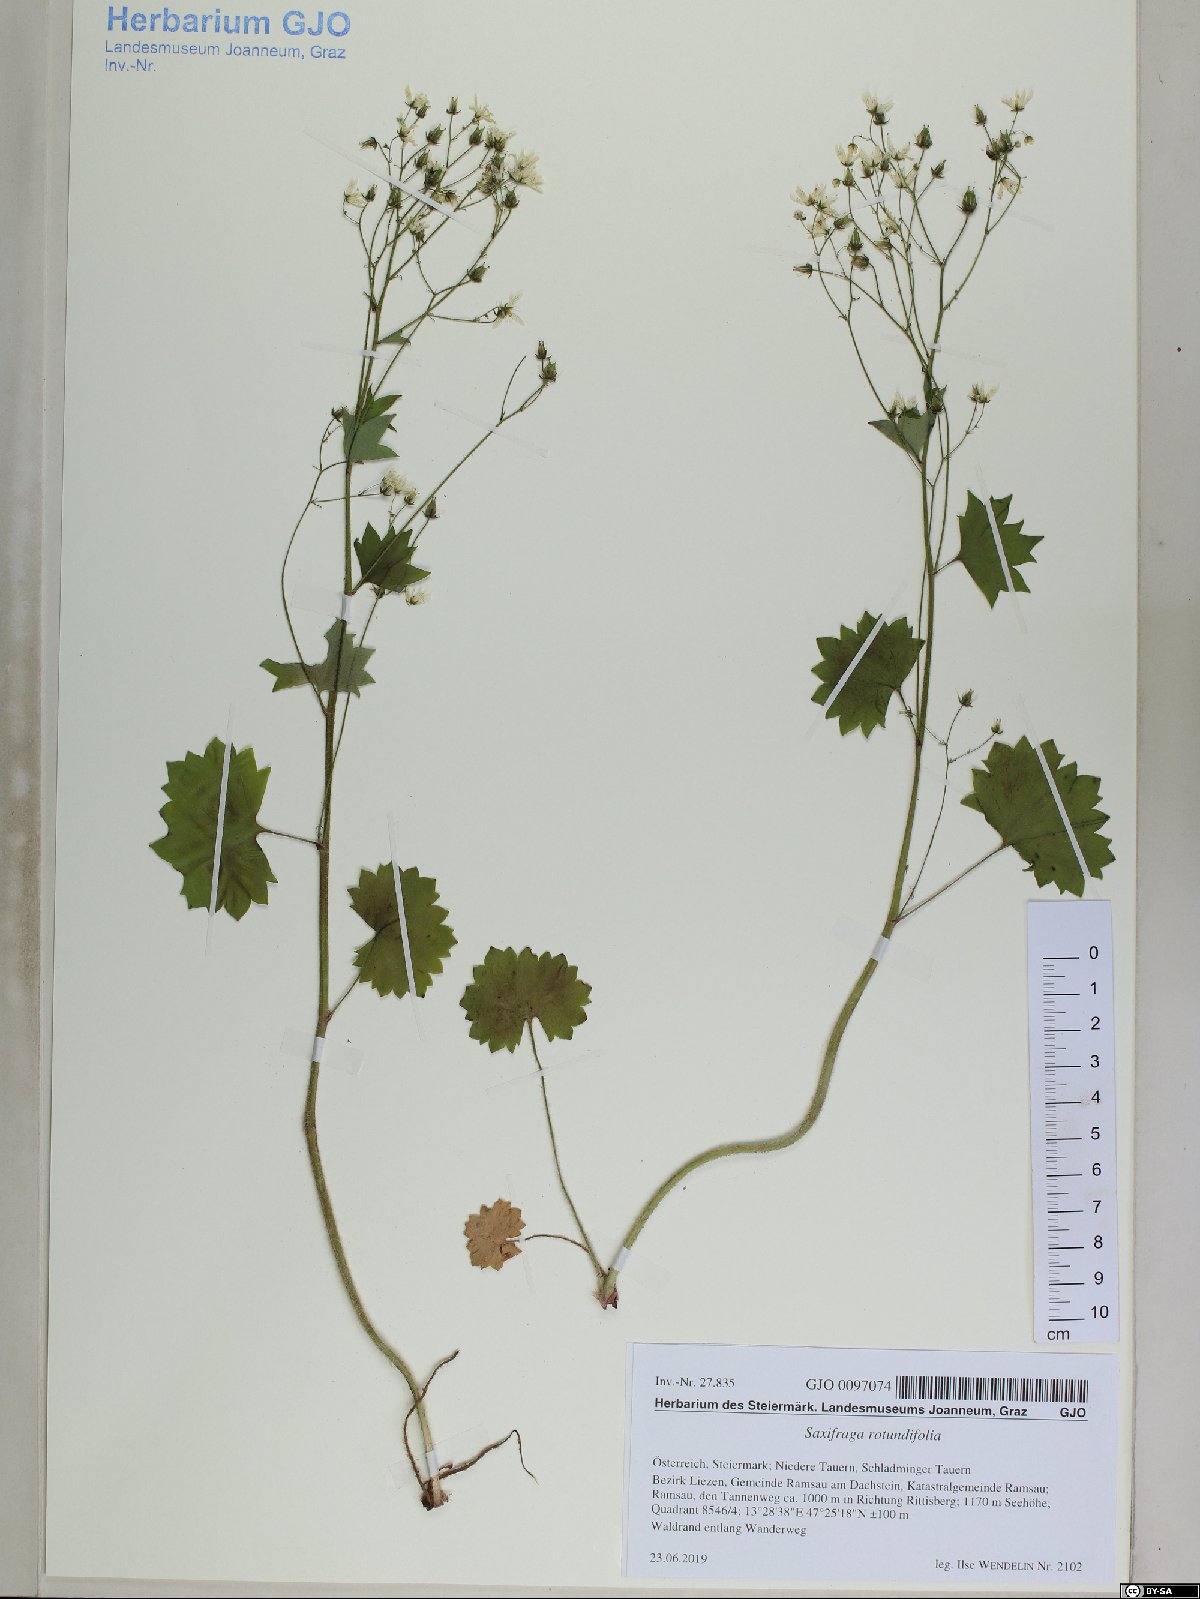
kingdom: Plantae
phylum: Tracheophyta
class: Magnoliopsida
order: Saxifragales
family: Saxifragaceae
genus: Saxifraga
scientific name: Saxifraga rotundifolia
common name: Round-leaved saxifrage
